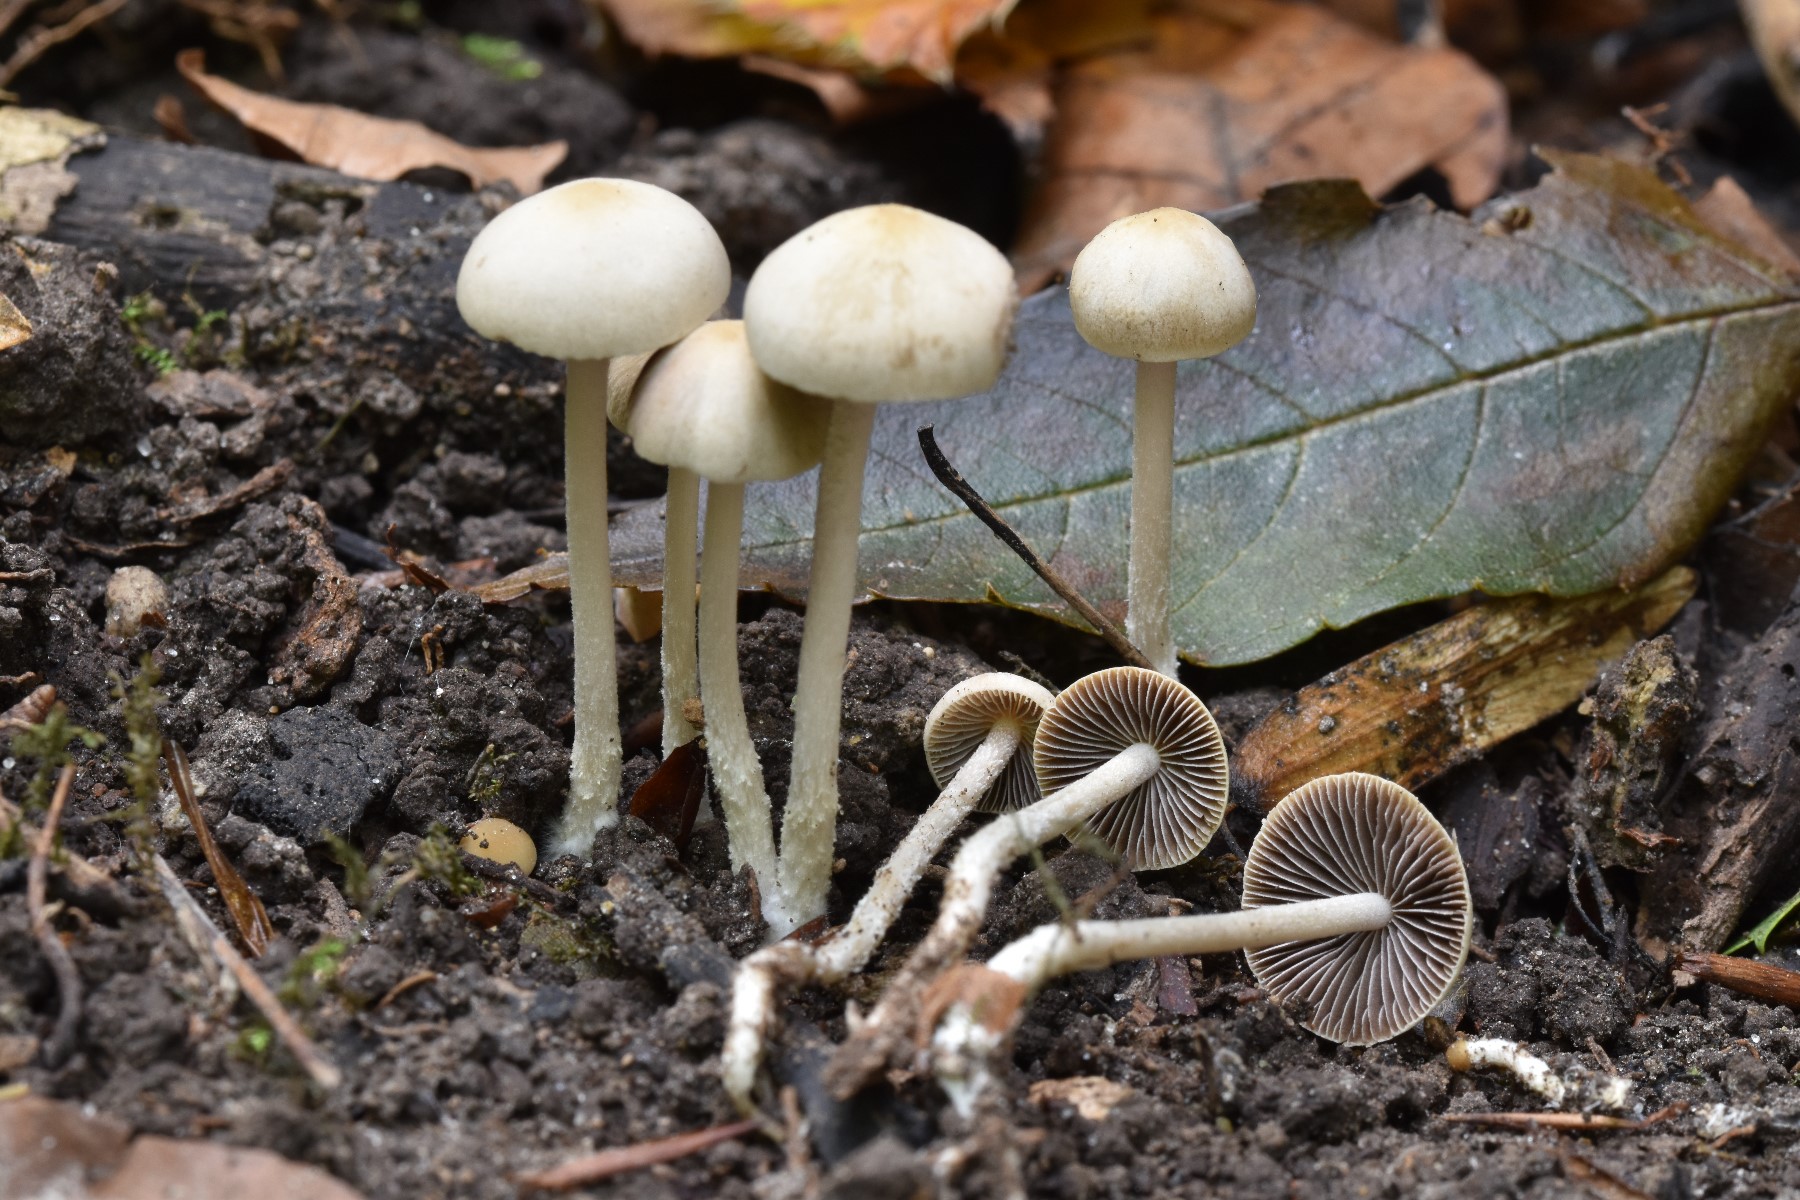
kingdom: Fungi
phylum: Basidiomycota
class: Agaricomycetes
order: Agaricales
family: Psathyrellaceae
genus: Britzelmayria
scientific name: Britzelmayria supernula
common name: stinkende mørkhat
